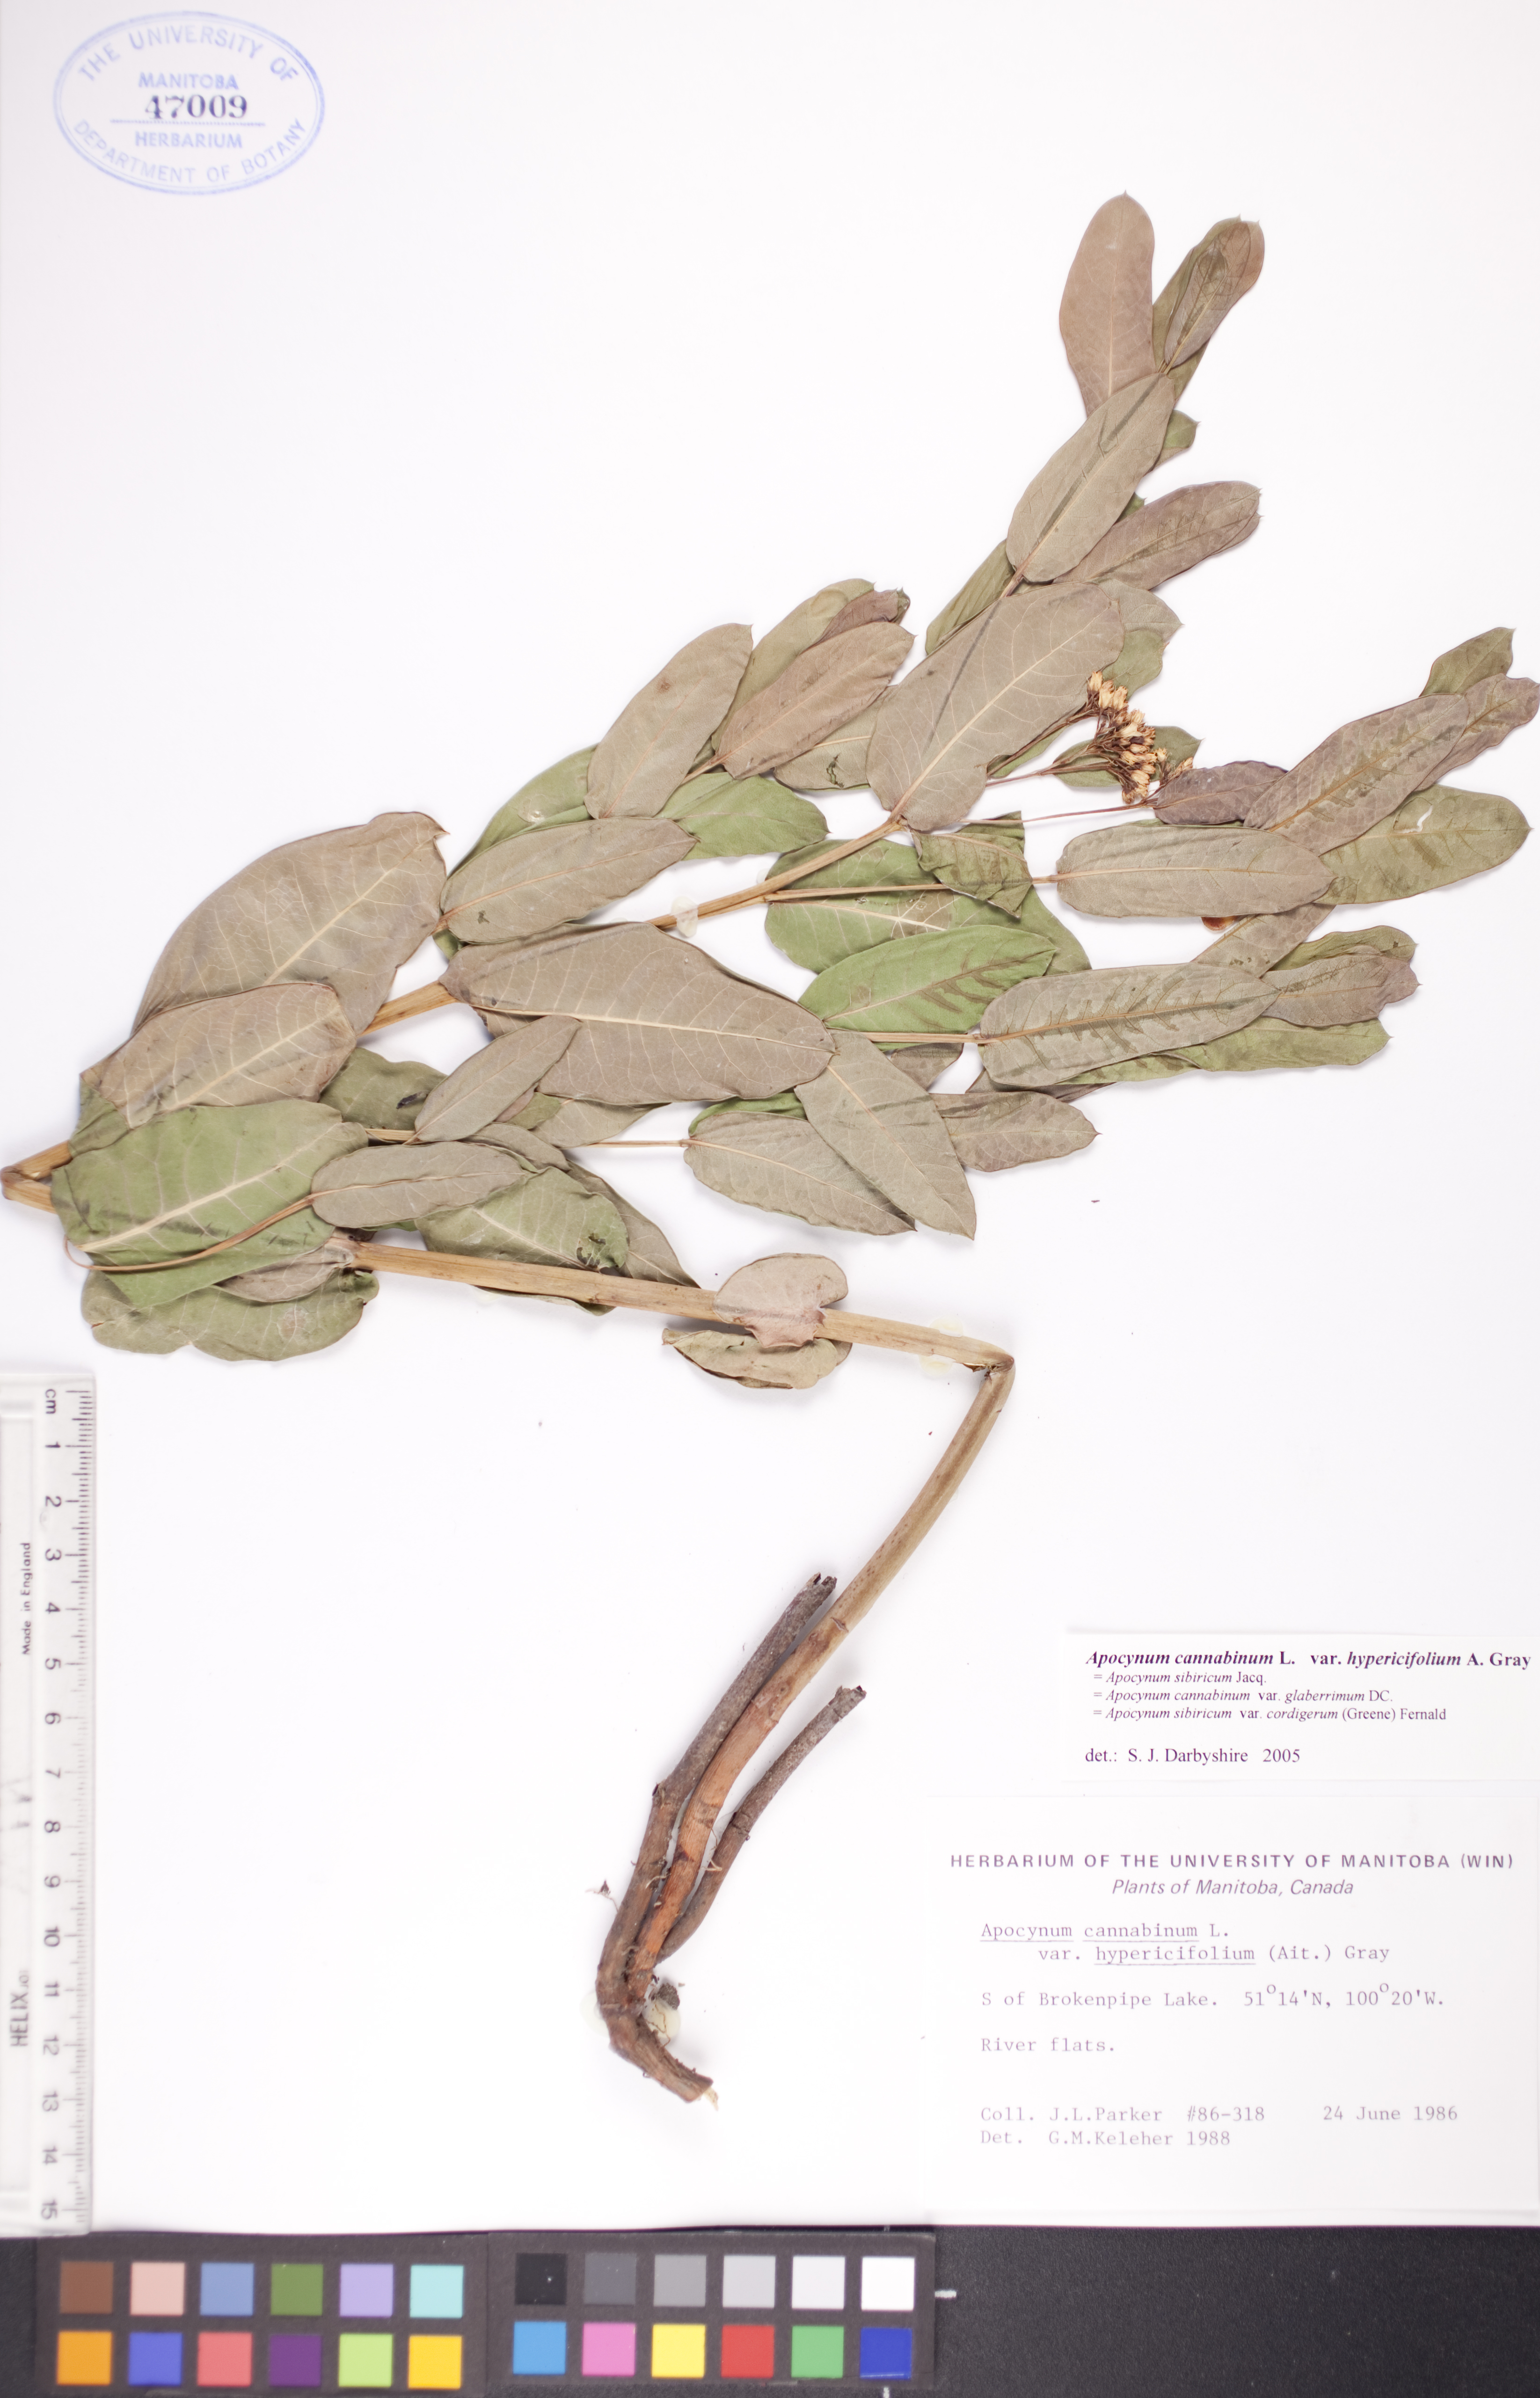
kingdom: Plantae
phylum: Tracheophyta
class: Magnoliopsida
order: Gentianales
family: Apocynaceae
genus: Apocynum
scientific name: Apocynum cannabinum
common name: Hemp dogbane
